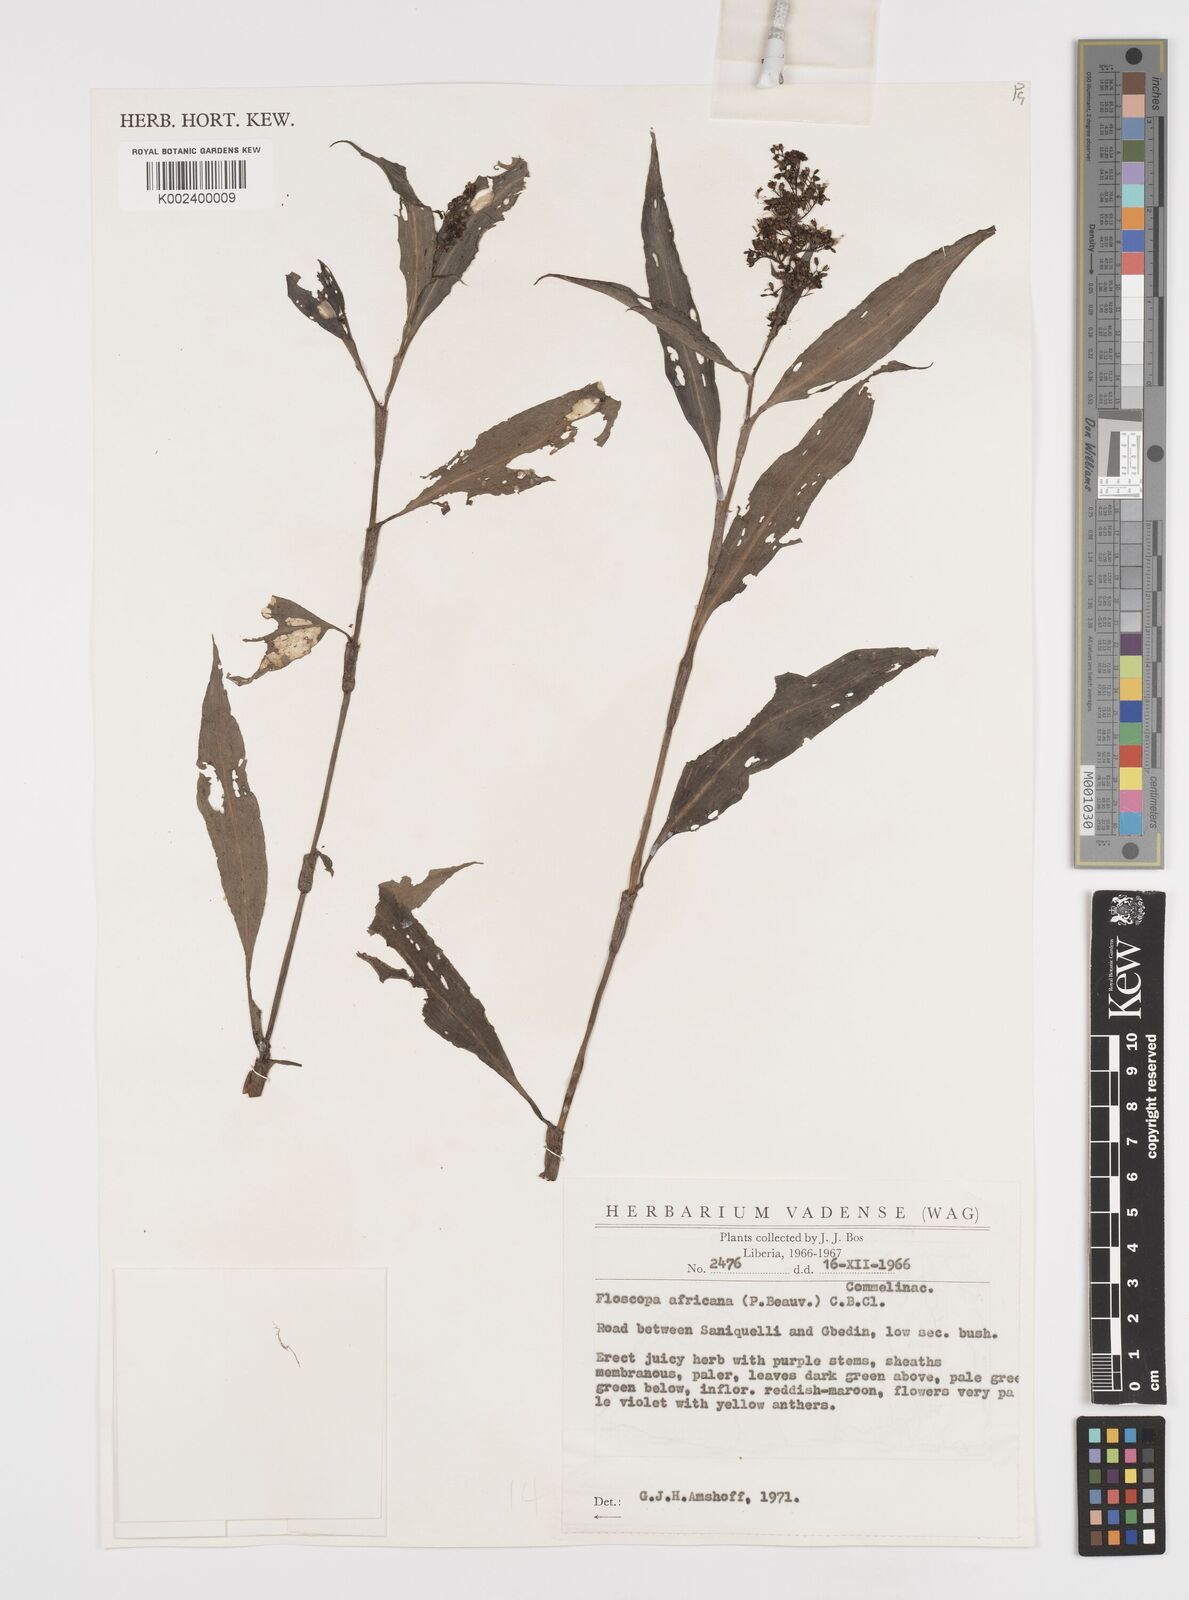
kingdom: Plantae
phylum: Tracheophyta
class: Liliopsida
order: Commelinales
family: Commelinaceae
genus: Floscopa
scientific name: Floscopa africana
